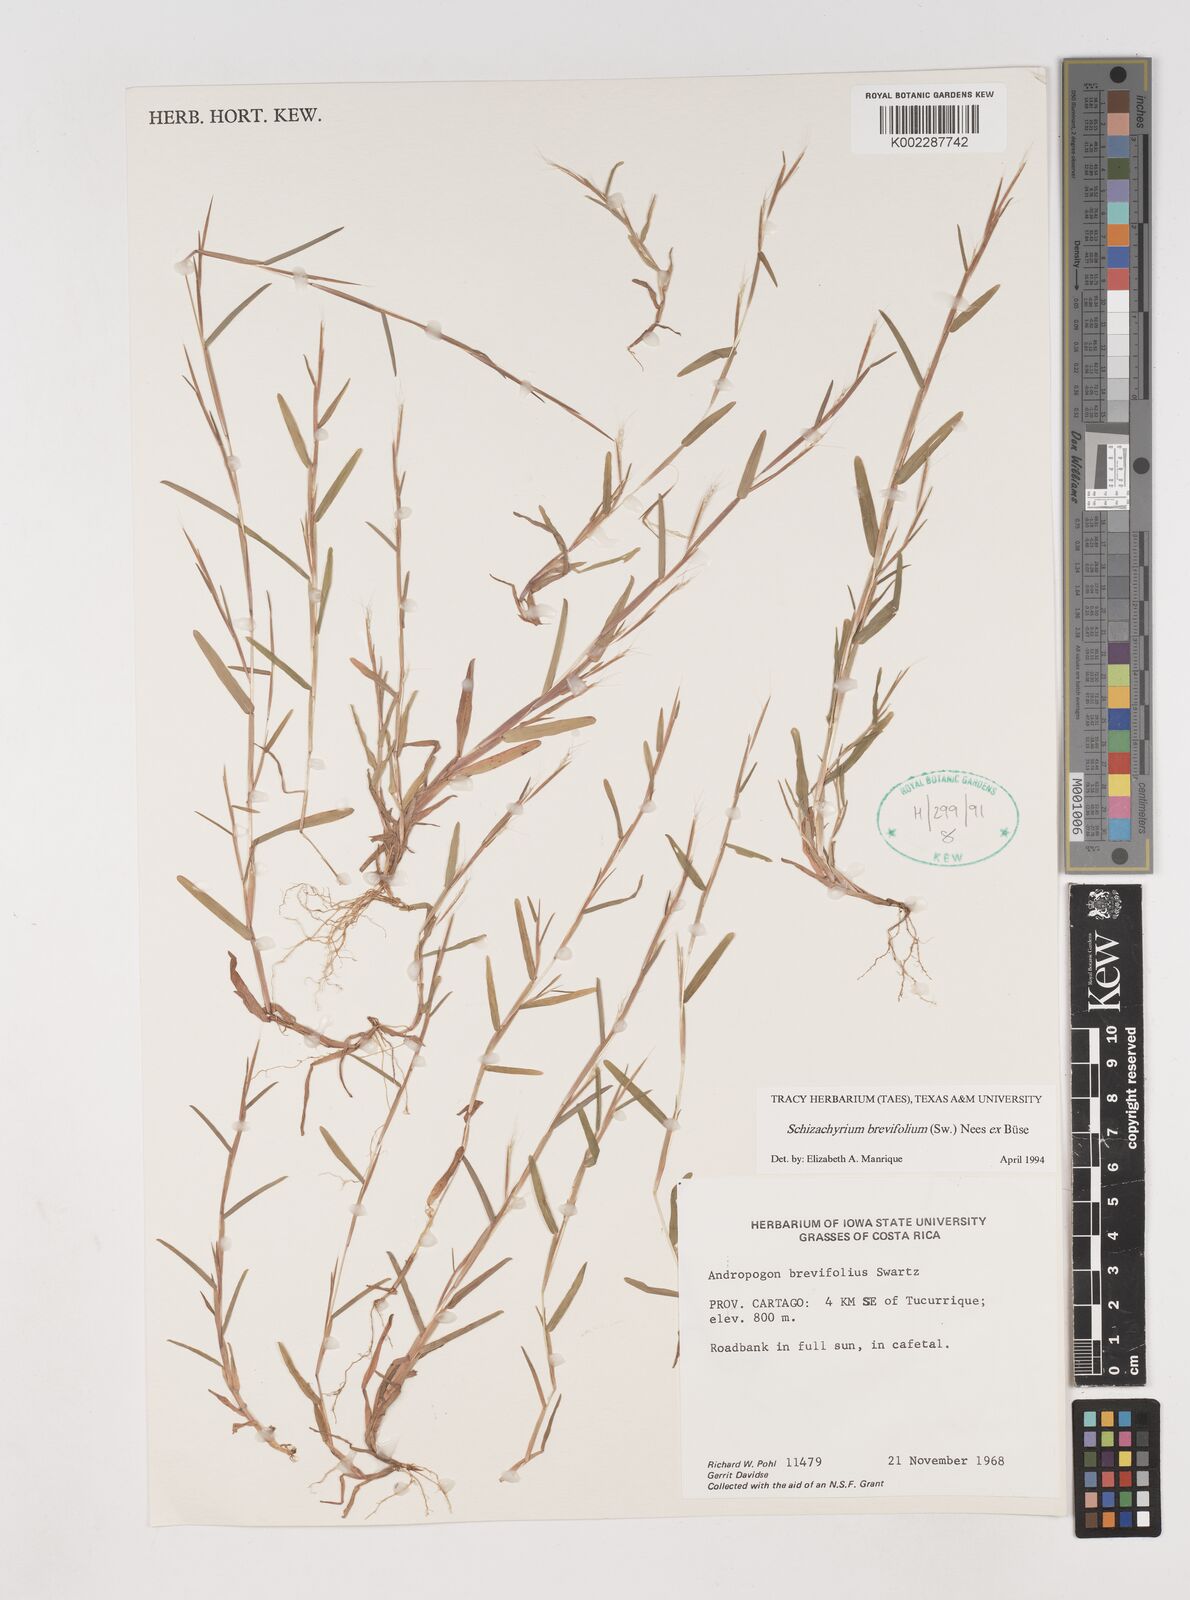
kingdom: Plantae
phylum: Tracheophyta
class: Liliopsida
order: Poales
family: Poaceae
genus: Schizachyrium
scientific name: Schizachyrium brevifolium
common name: Serillo dulce
